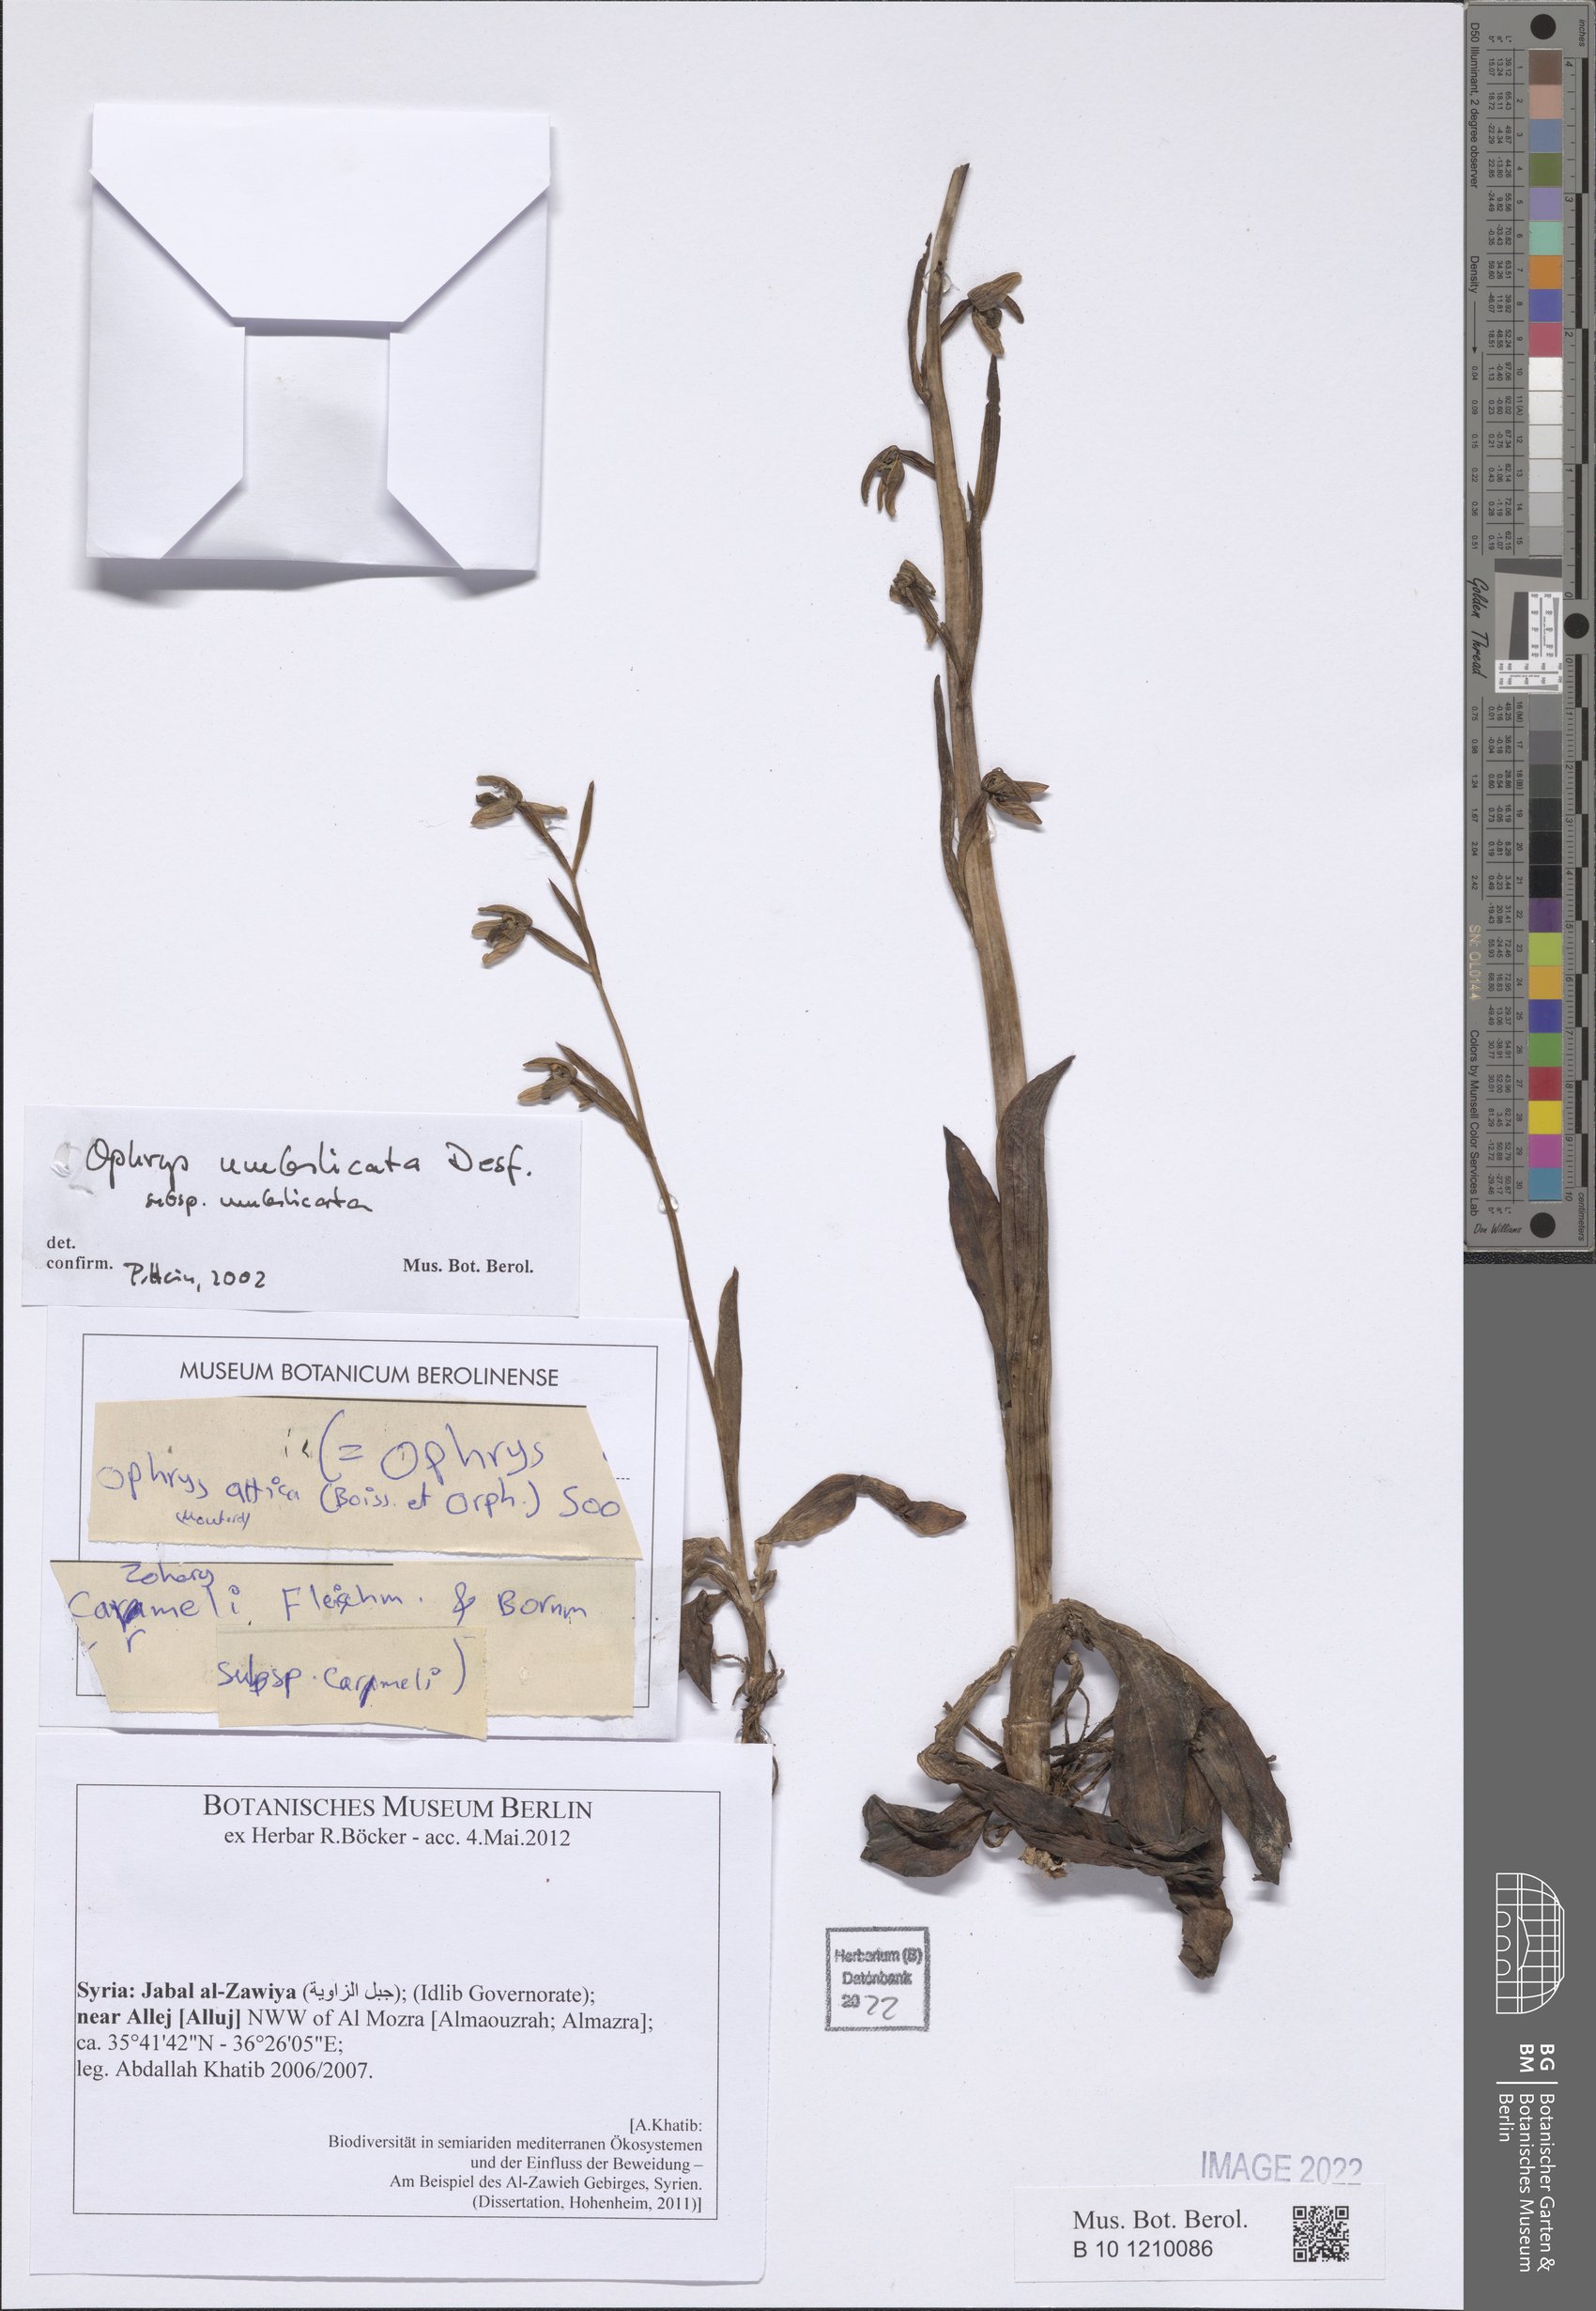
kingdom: Plantae
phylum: Tracheophyta
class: Liliopsida
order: Asparagales
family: Orchidaceae
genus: Ophrys
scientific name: Ophrys umbilicata
